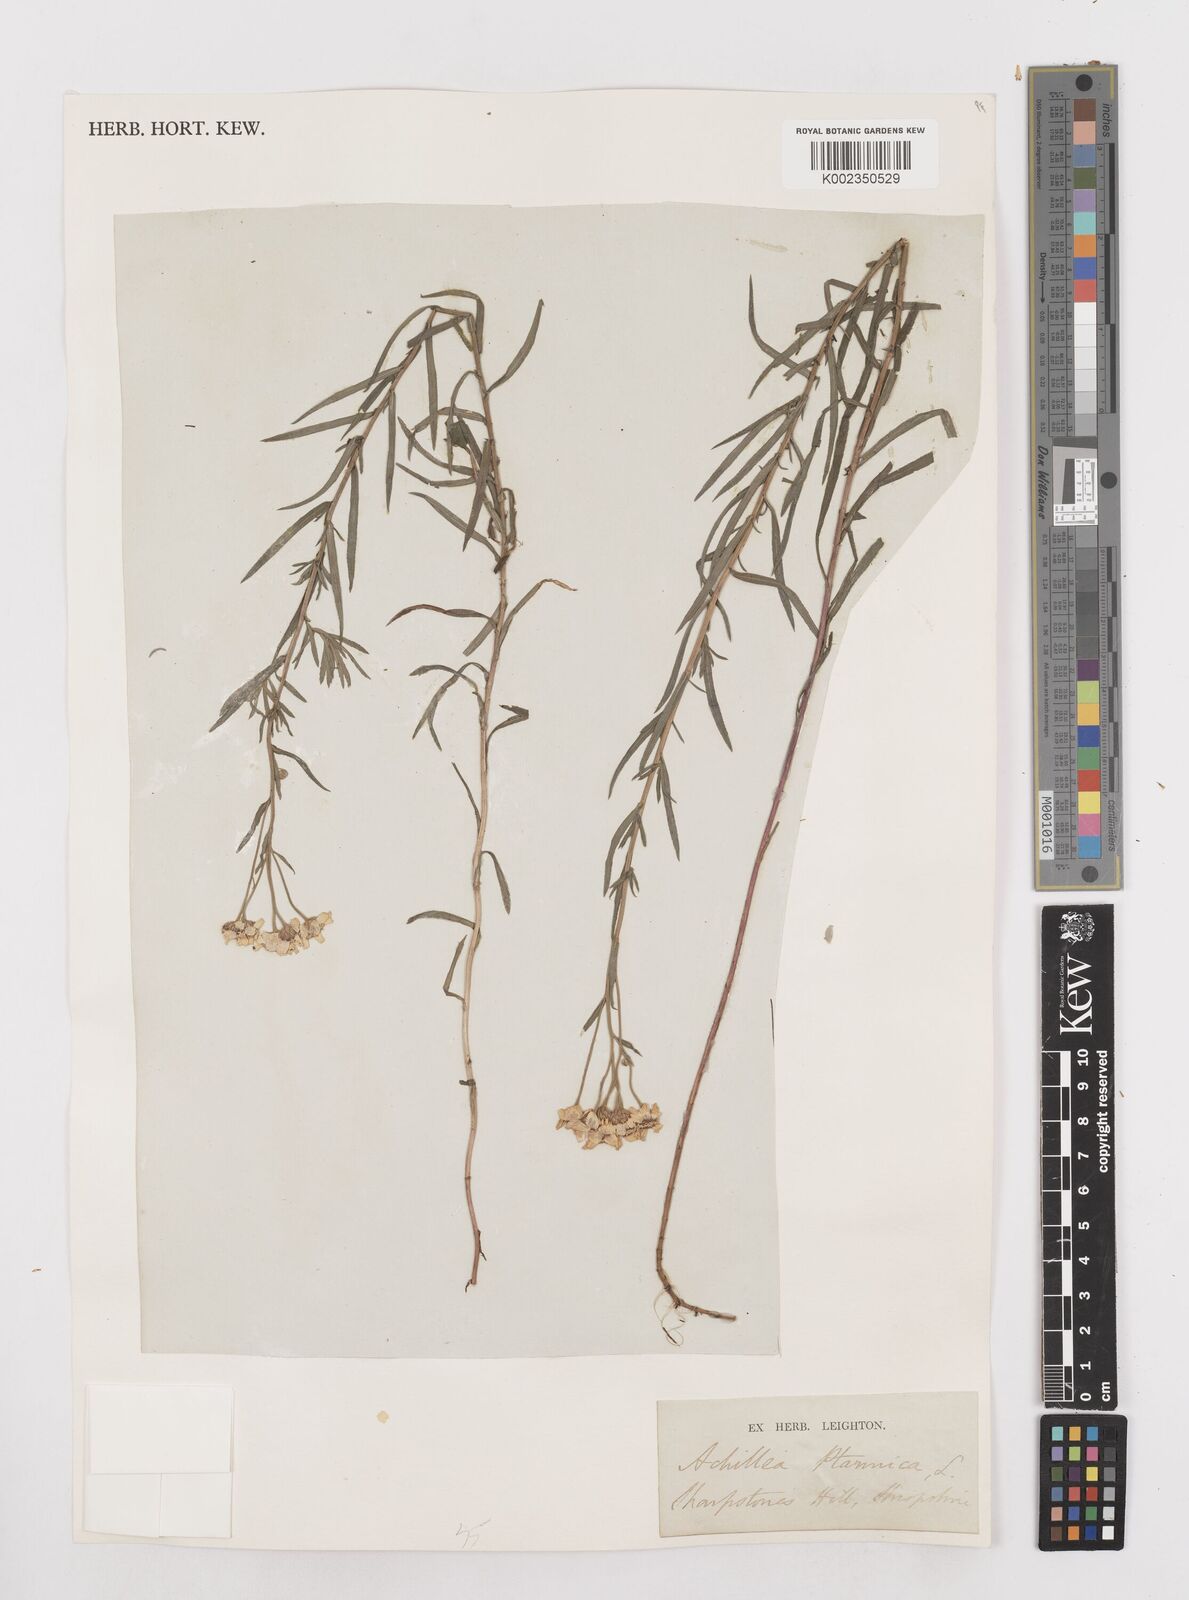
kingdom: Plantae
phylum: Tracheophyta
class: Magnoliopsida
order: Asterales
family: Asteraceae
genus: Achillea
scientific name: Achillea ptarmica
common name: Sneezeweed
